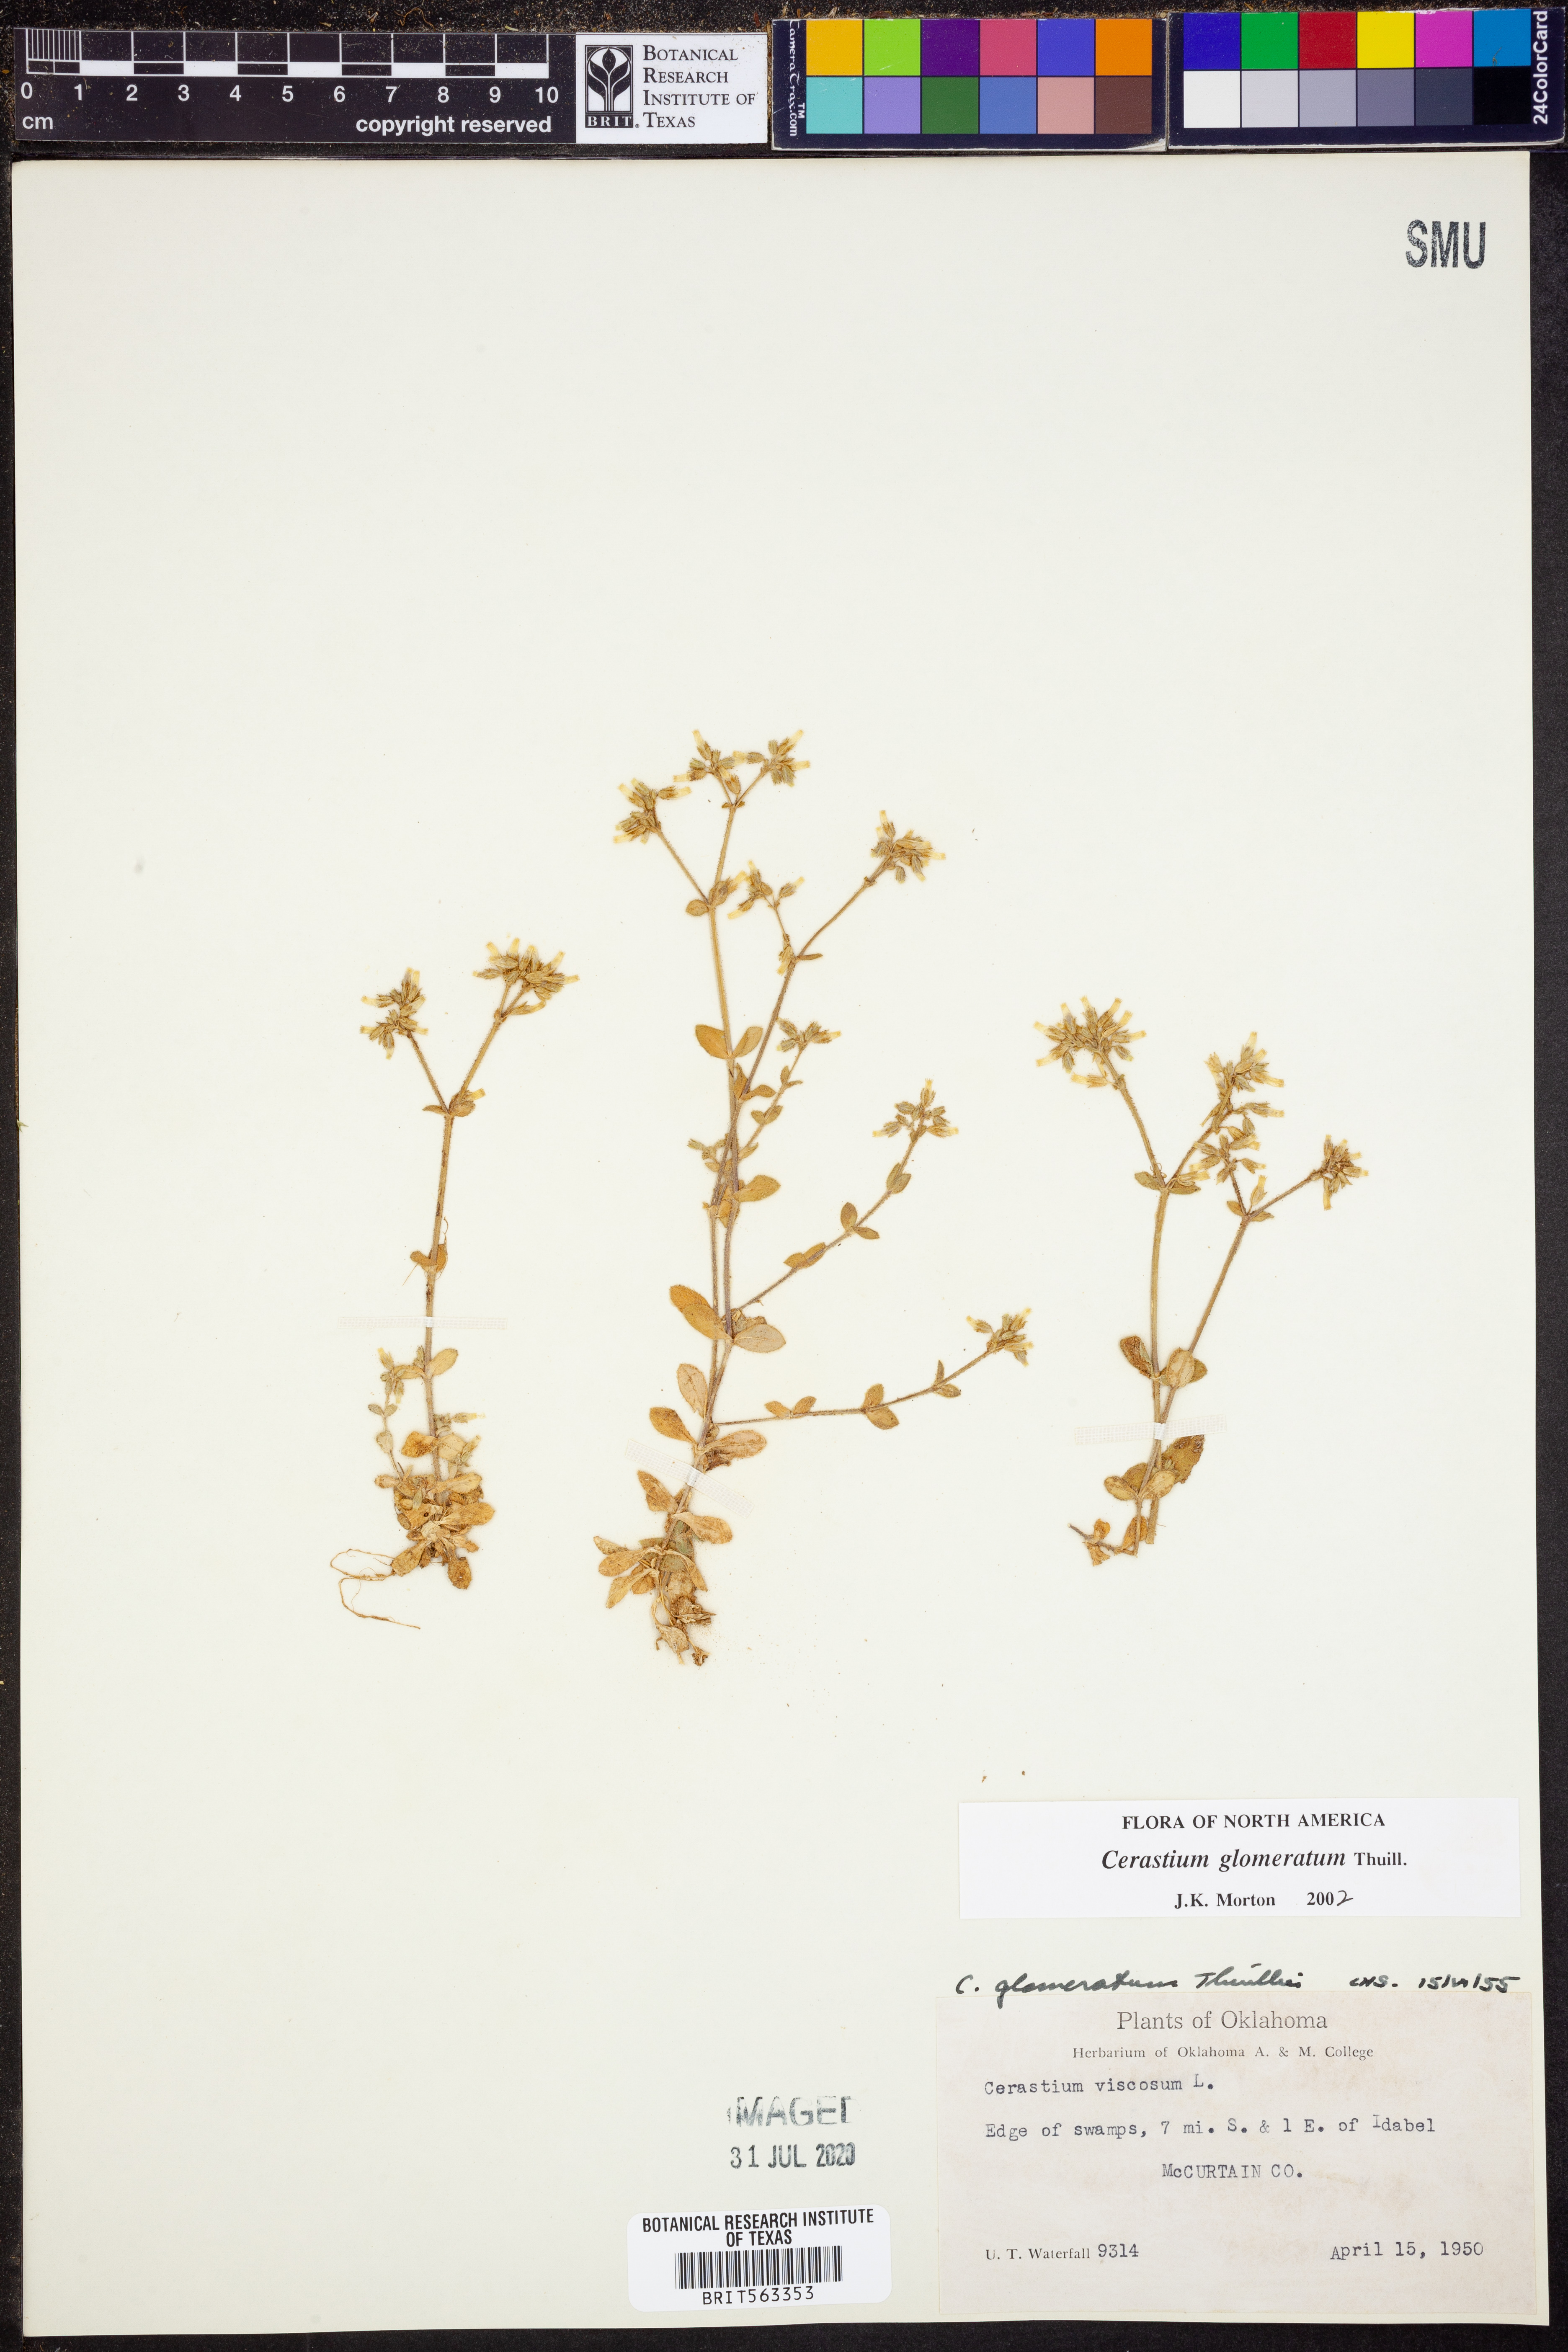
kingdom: Plantae
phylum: Tracheophyta
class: Magnoliopsida
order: Caryophyllales
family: Caryophyllaceae
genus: Cerastium
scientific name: Cerastium glomeratum
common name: Sticky chickweed
